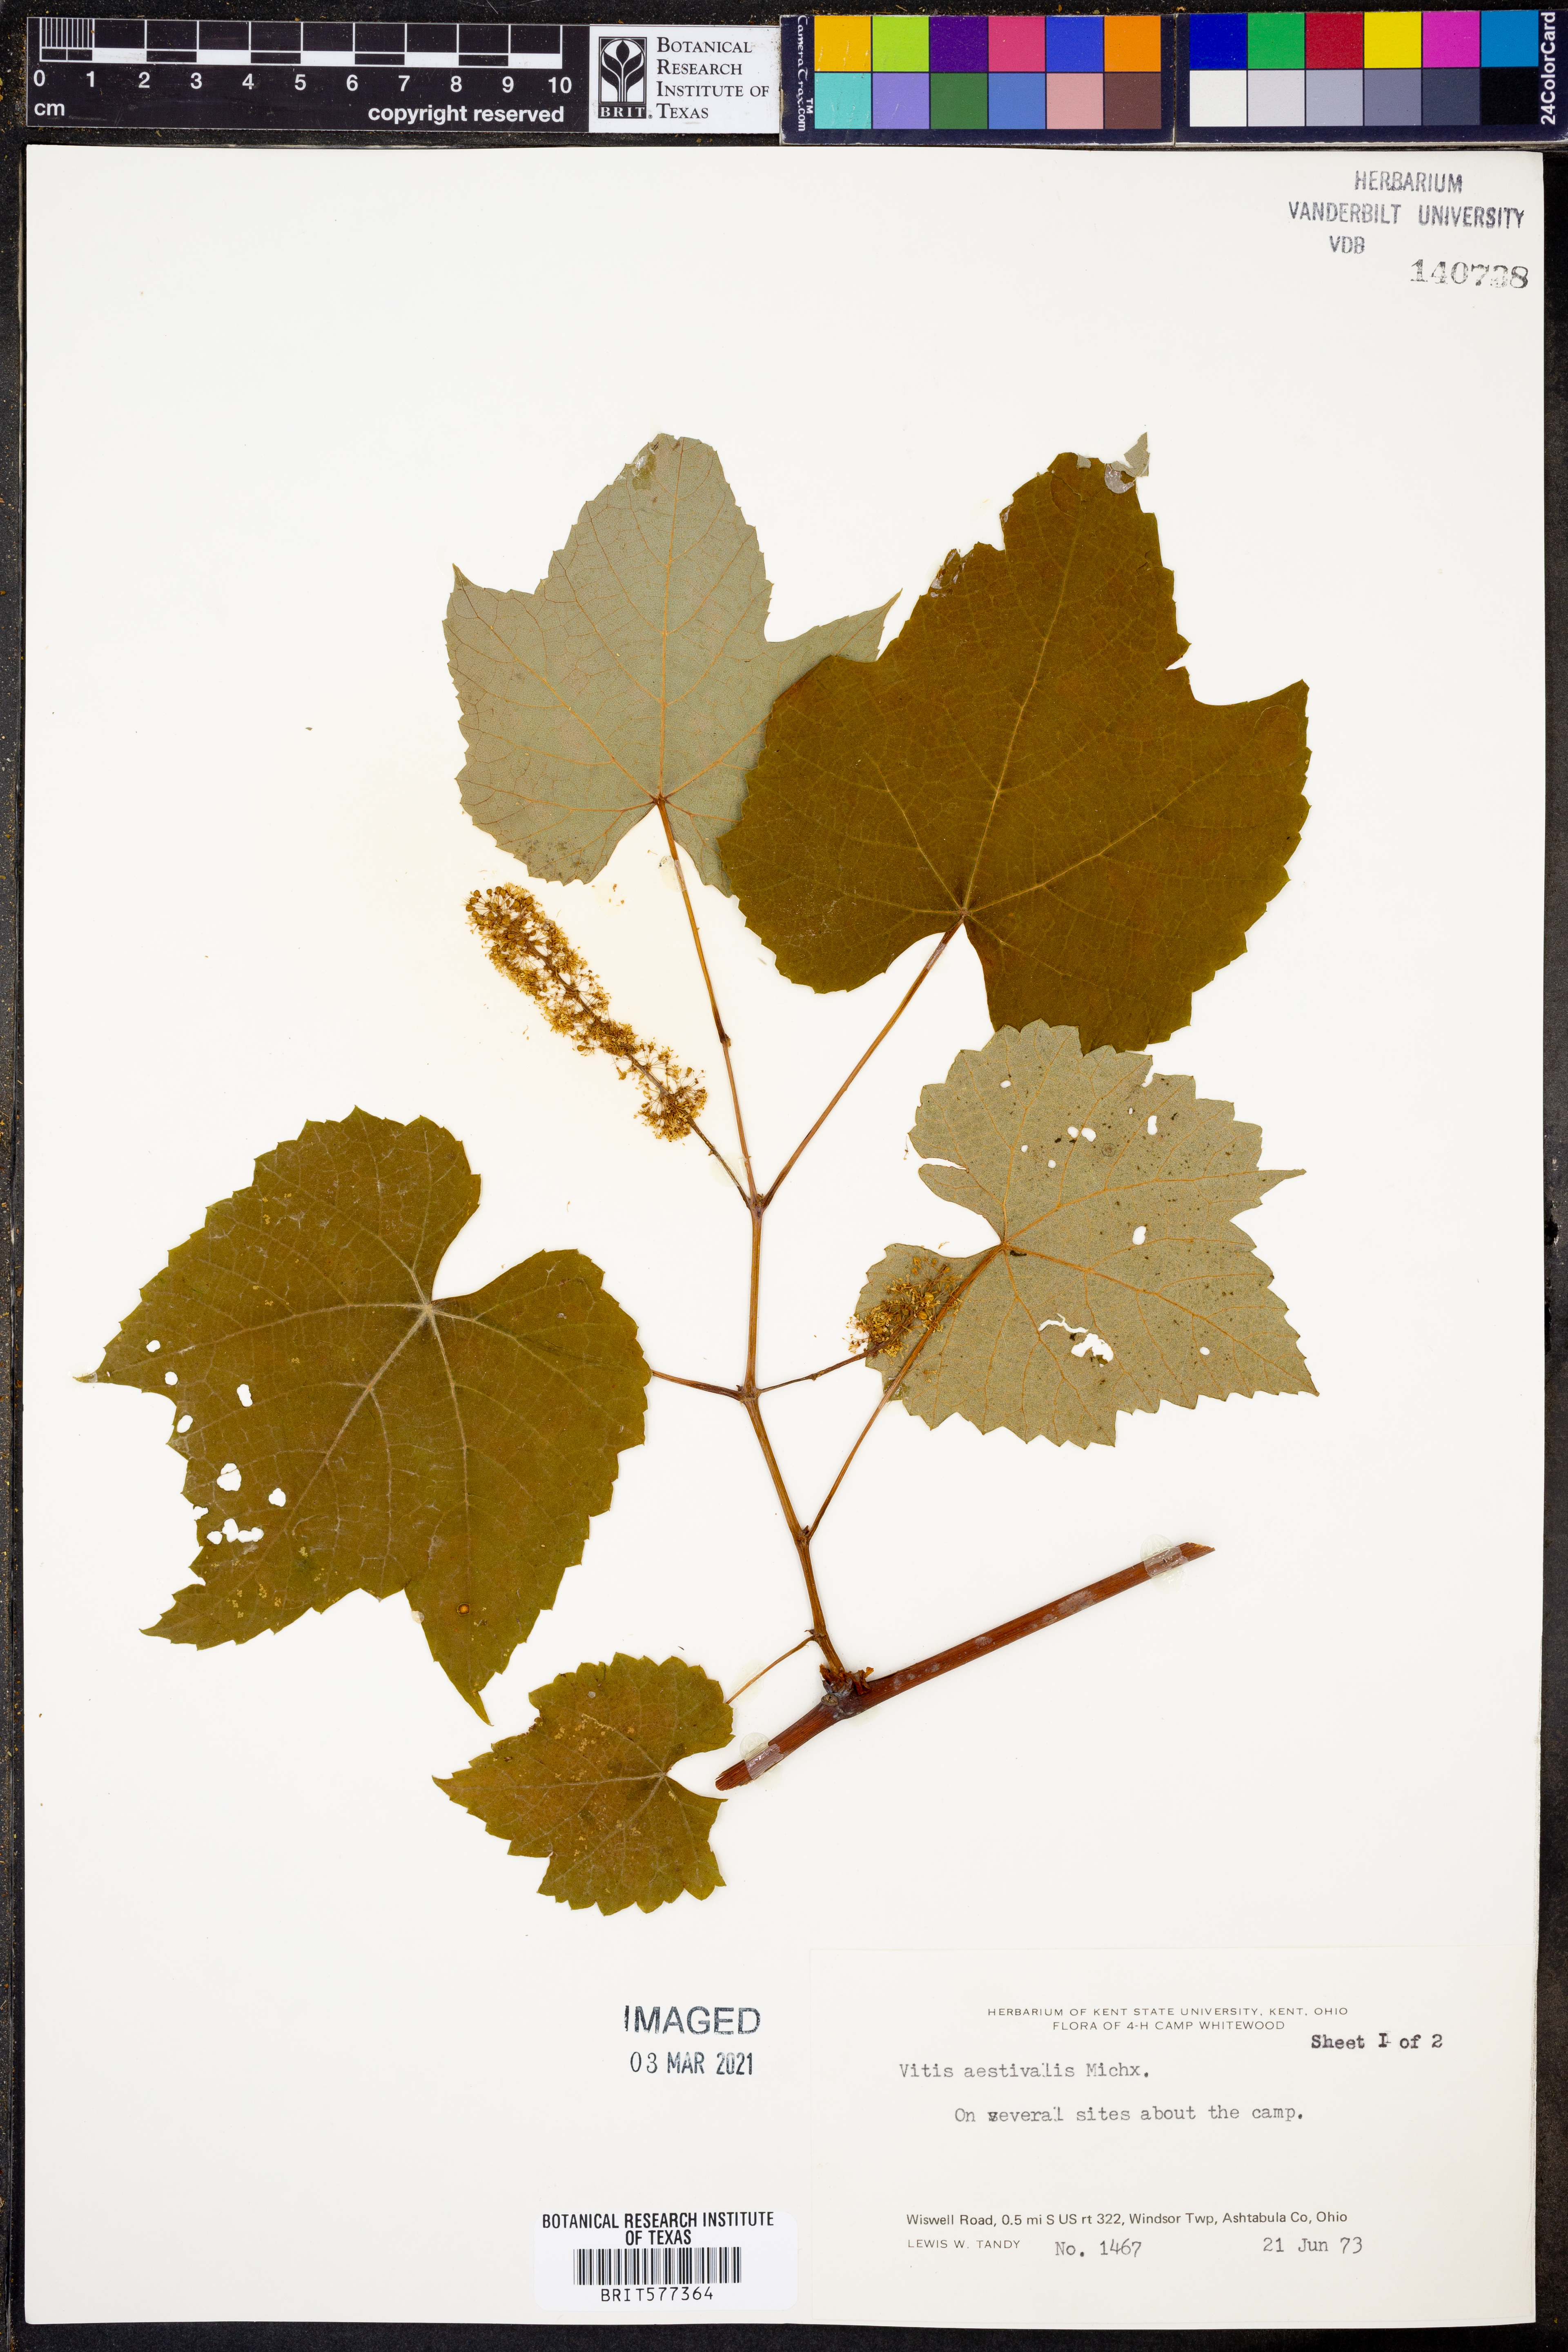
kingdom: Plantae
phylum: Tracheophyta
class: Magnoliopsida
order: Vitales
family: Vitaceae
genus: Vitis
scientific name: Vitis aestivalis
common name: Pigeon grape
